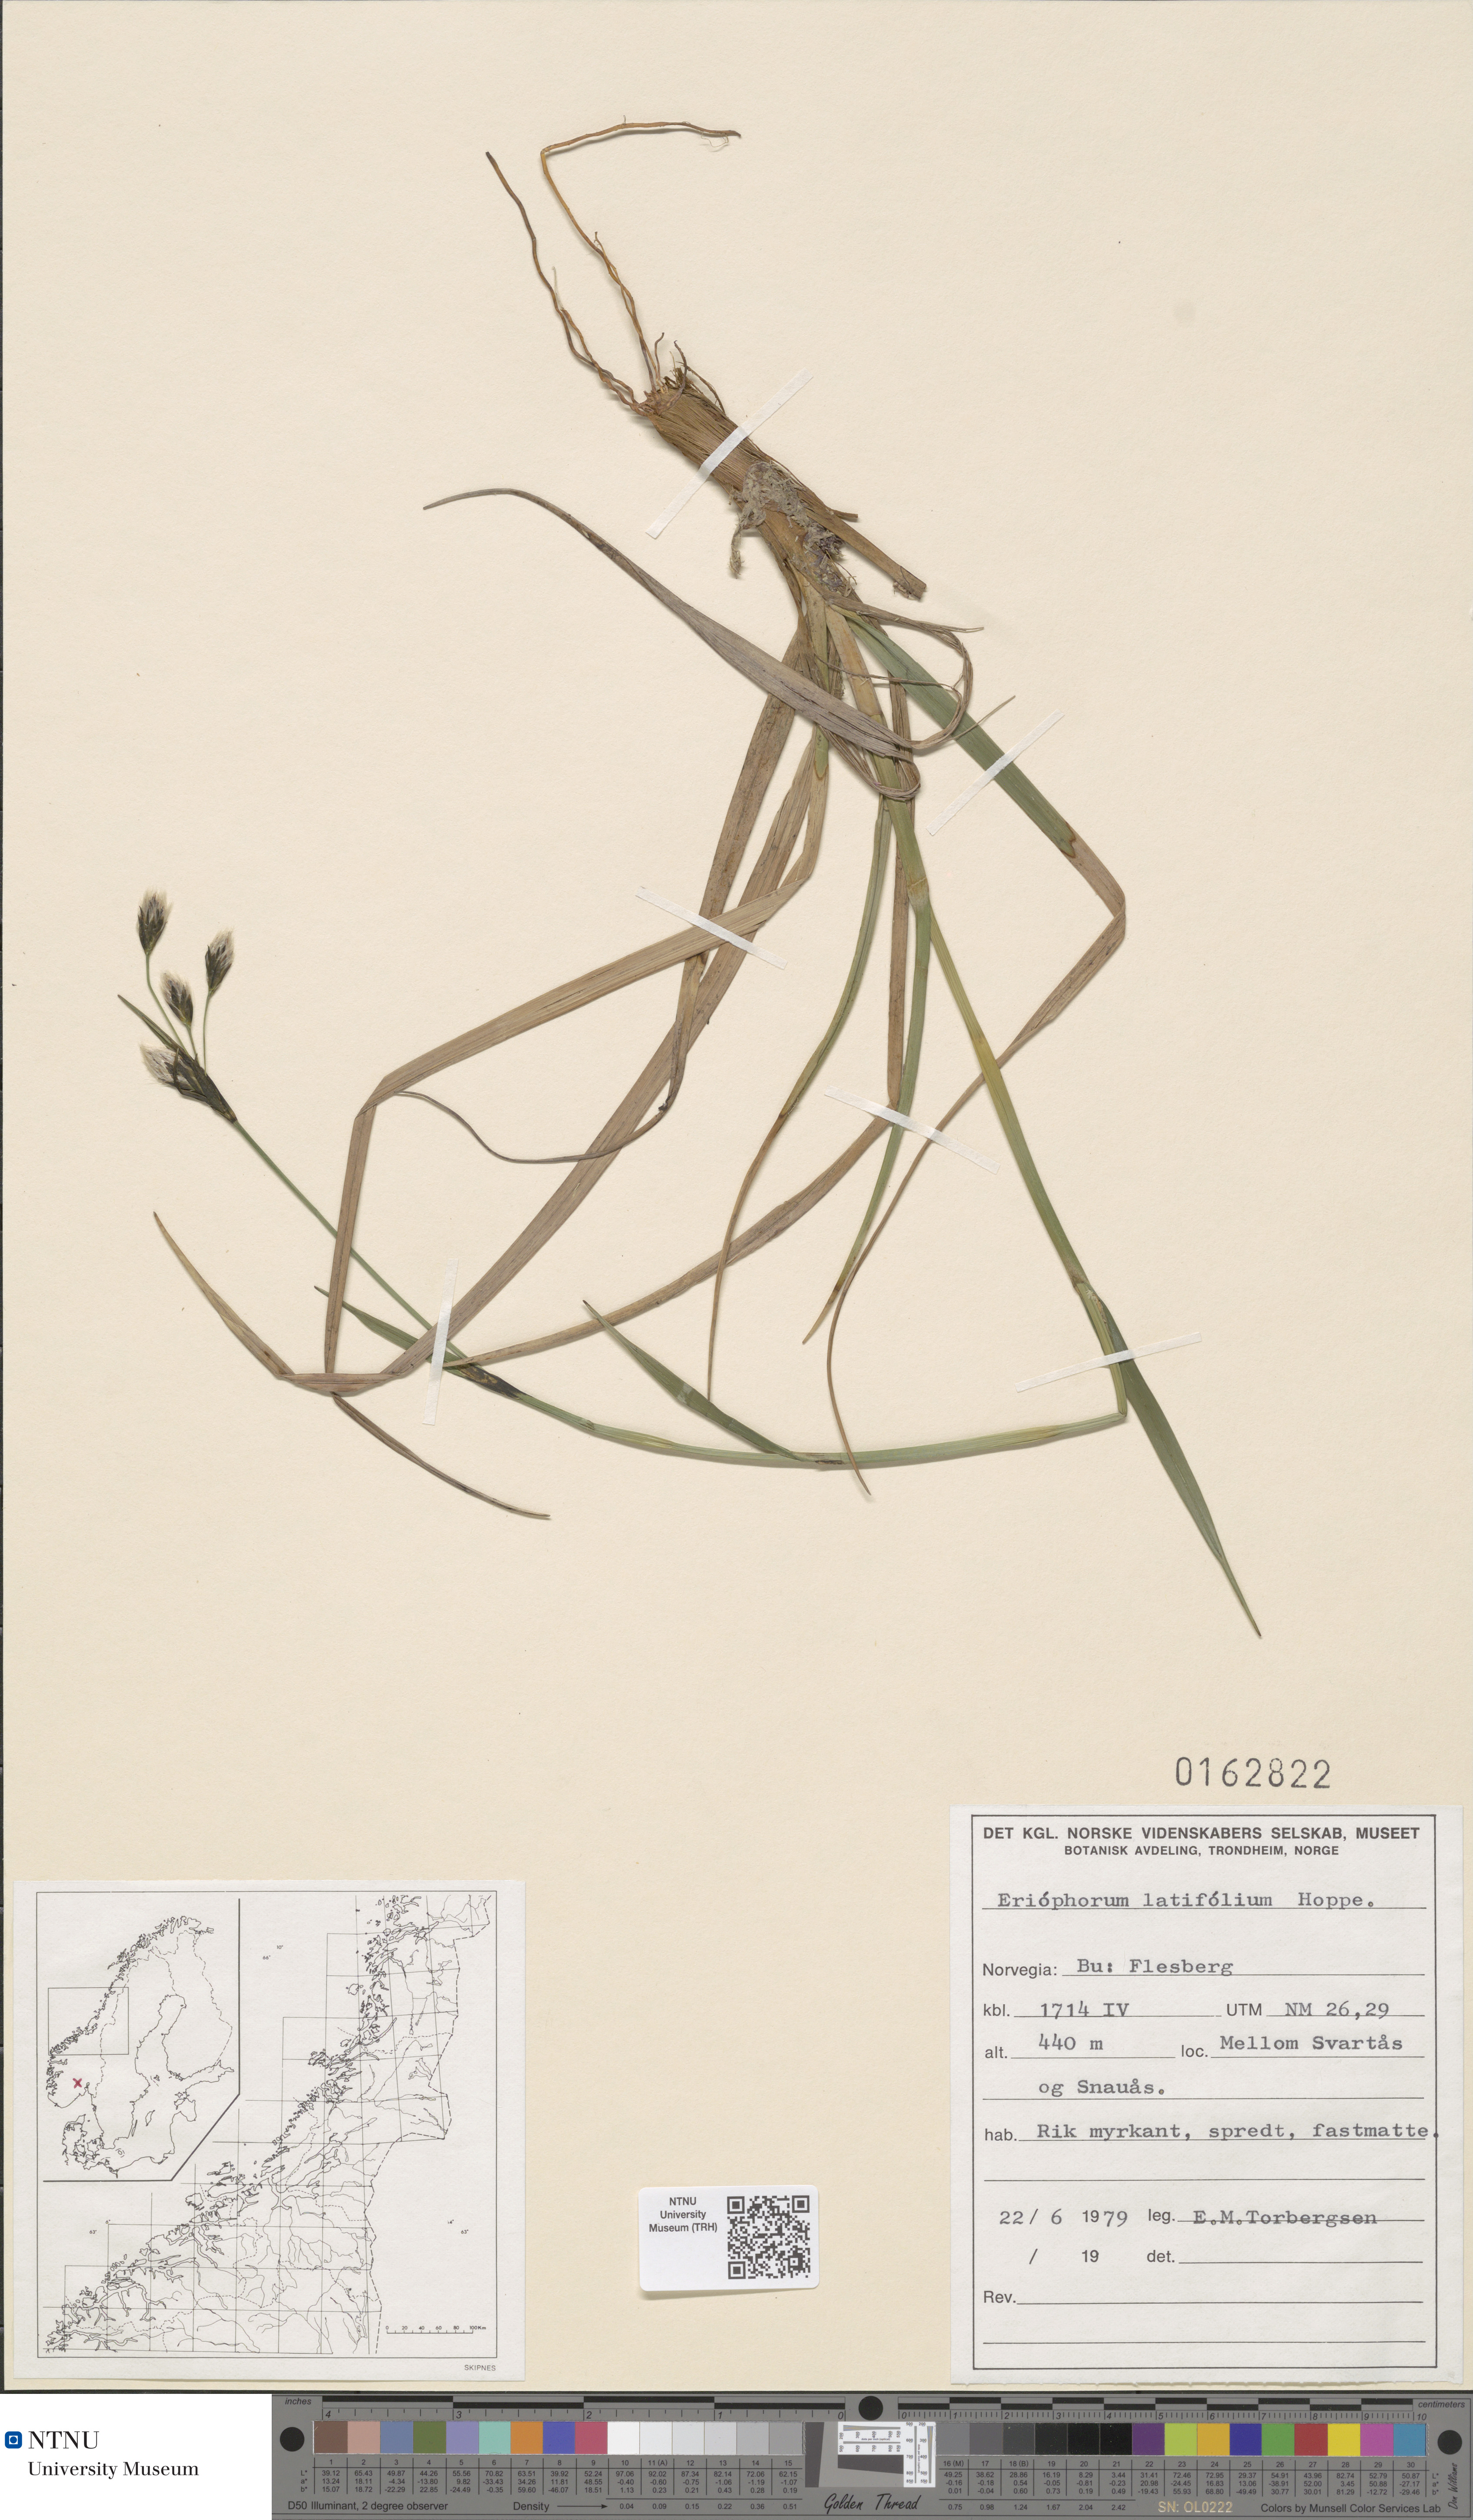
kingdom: Plantae
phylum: Tracheophyta
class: Liliopsida
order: Poales
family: Cyperaceae
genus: Eriophorum
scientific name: Eriophorum latifolium
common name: Broad-leaved cottongrass
